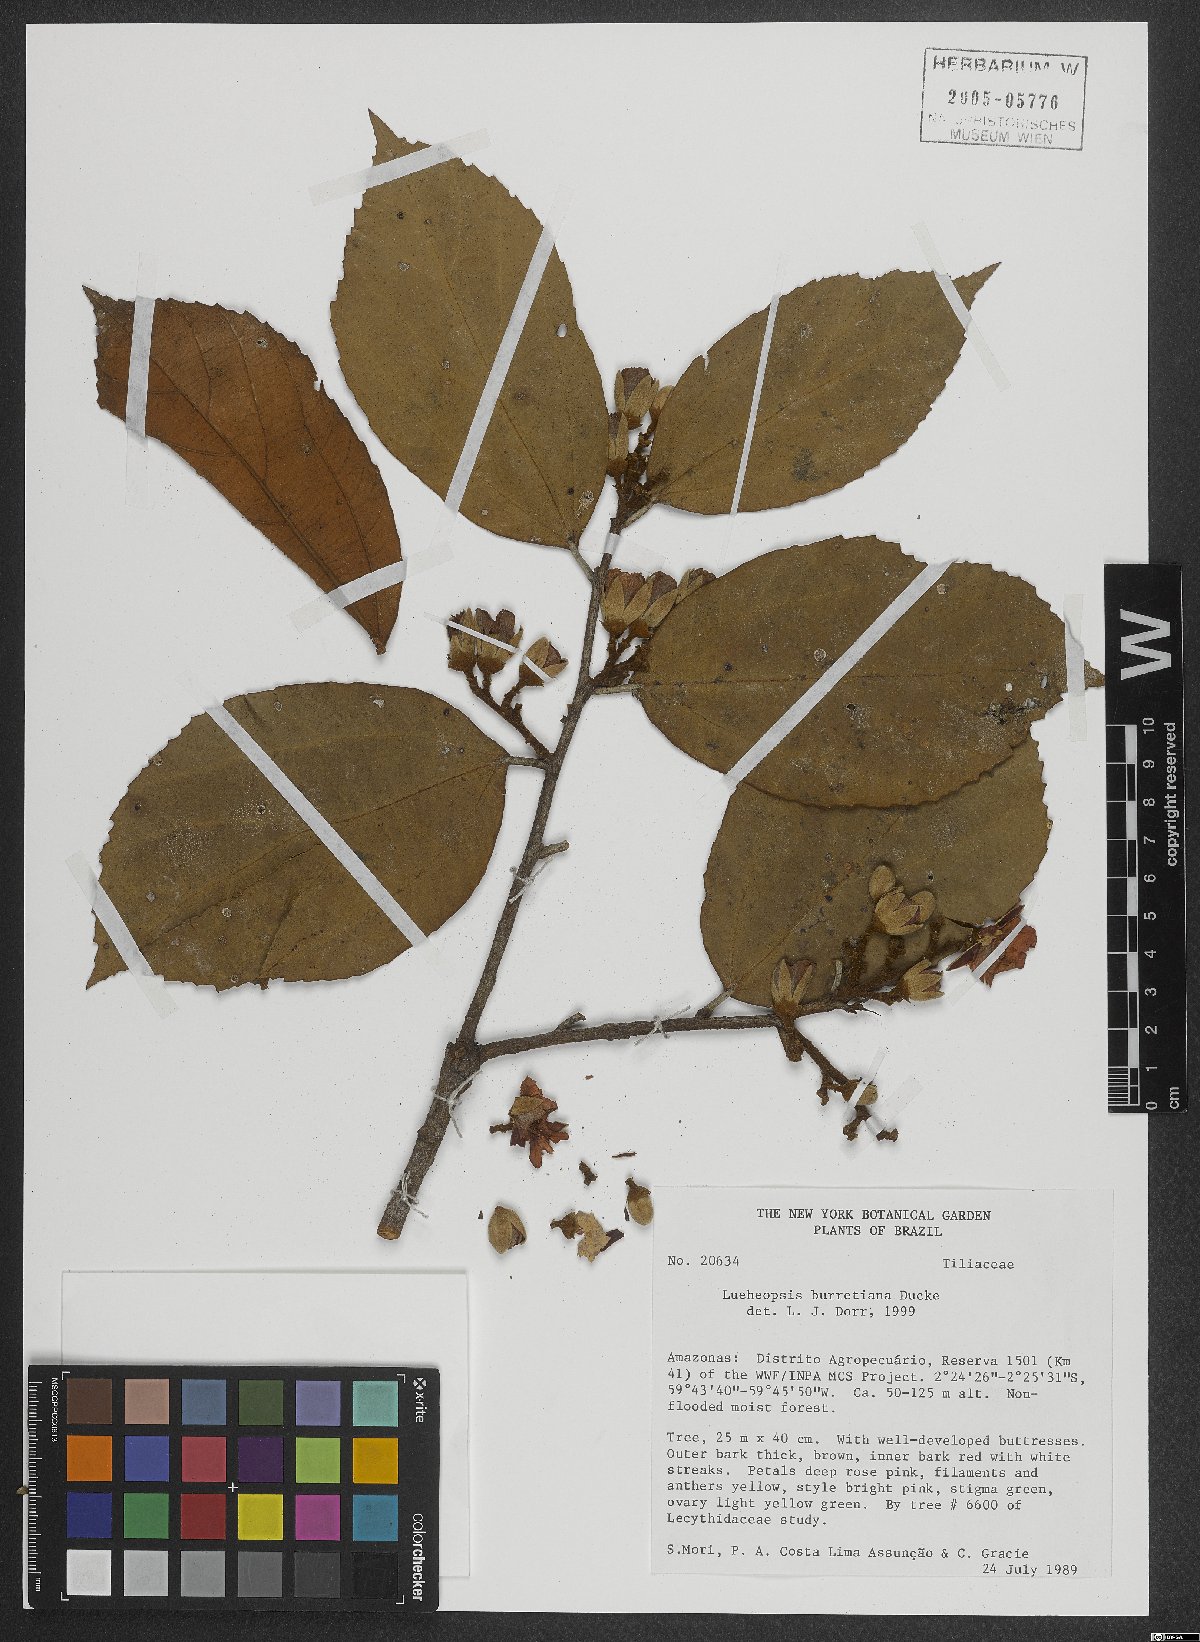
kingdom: Plantae
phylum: Tracheophyta
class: Magnoliopsida
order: Malvales
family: Malvaceae
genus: Lueheopsis
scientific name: Lueheopsis burretiana
